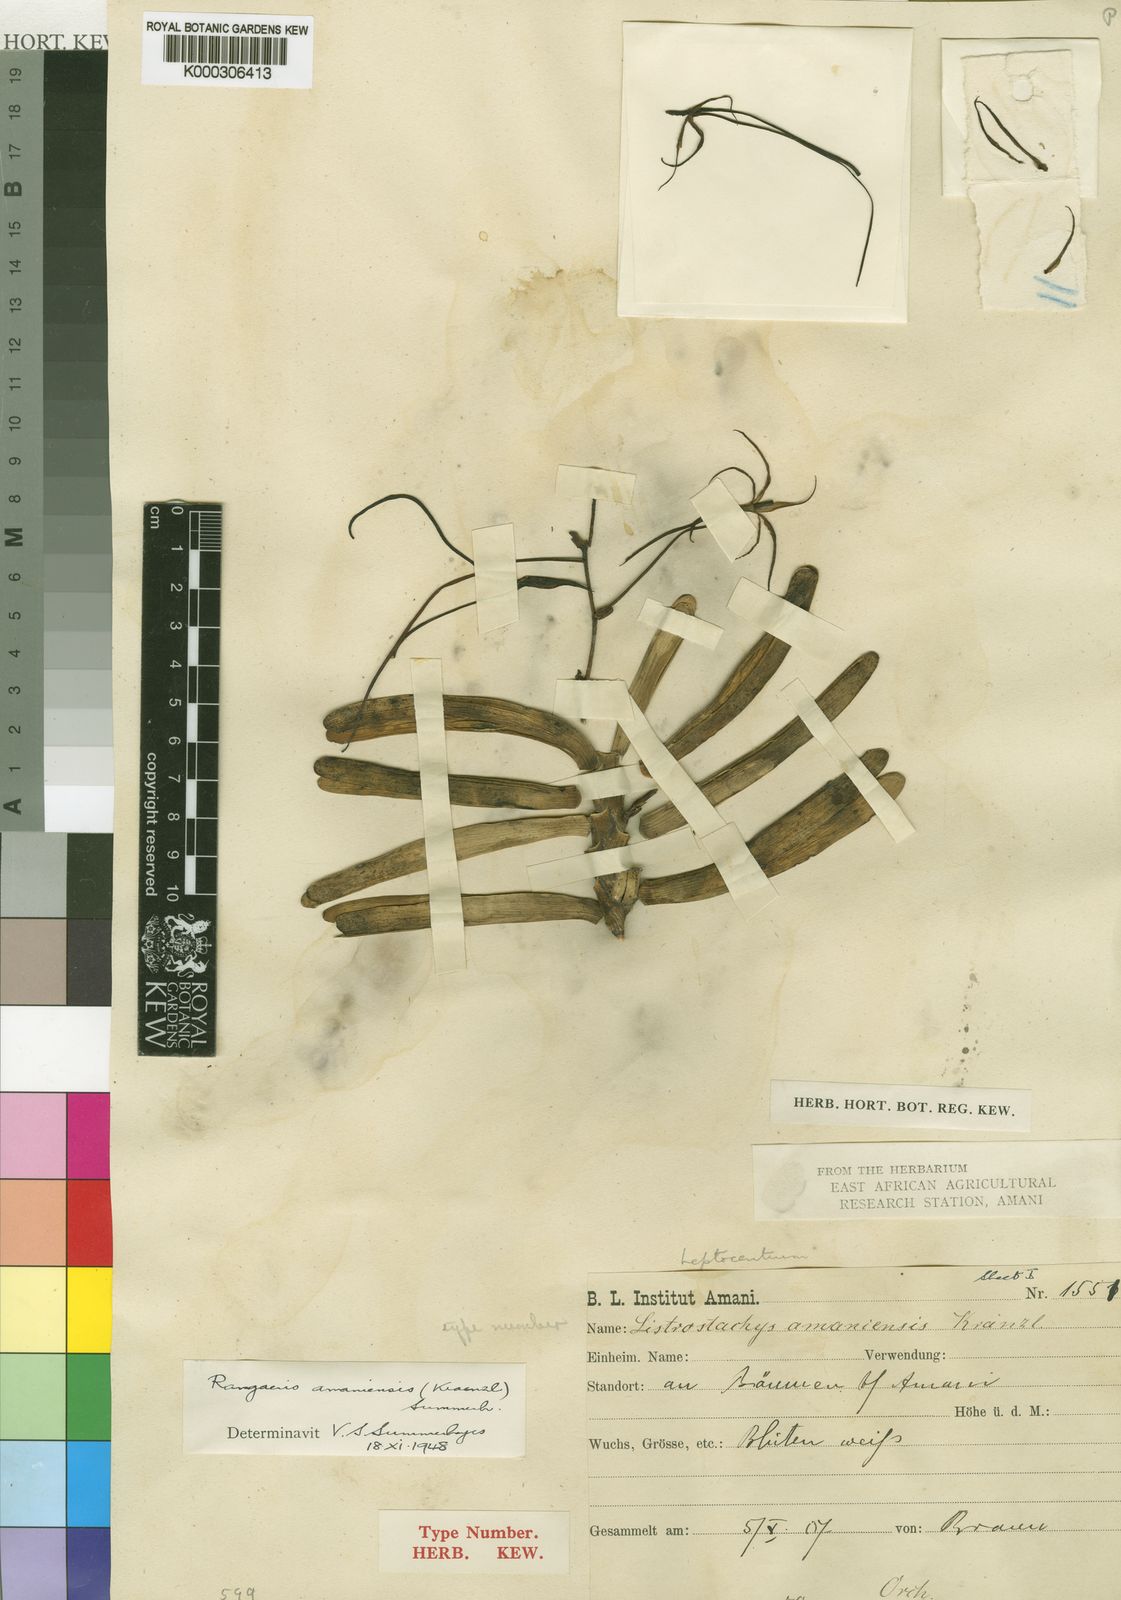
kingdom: Plantae
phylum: Tracheophyta
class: Liliopsida
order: Asparagales
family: Orchidaceae
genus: Ypsilopus
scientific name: Ypsilopus amaniensis
